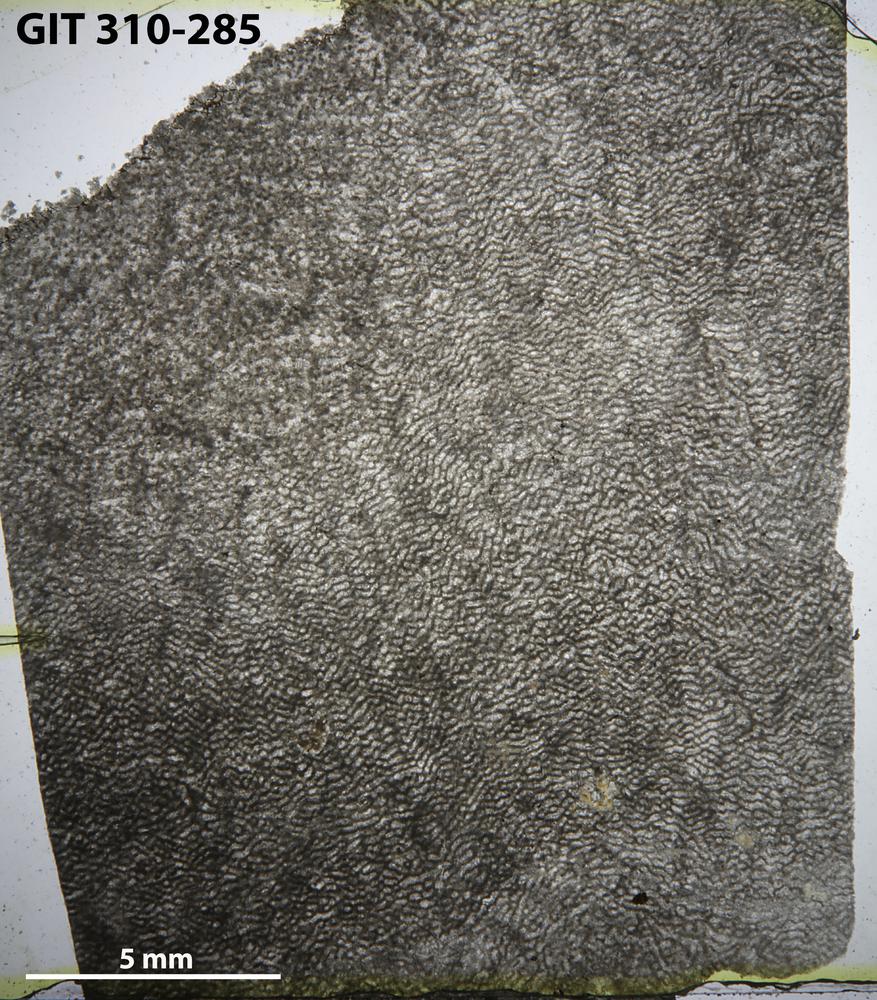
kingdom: Animalia
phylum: Porifera
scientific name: Porifera
